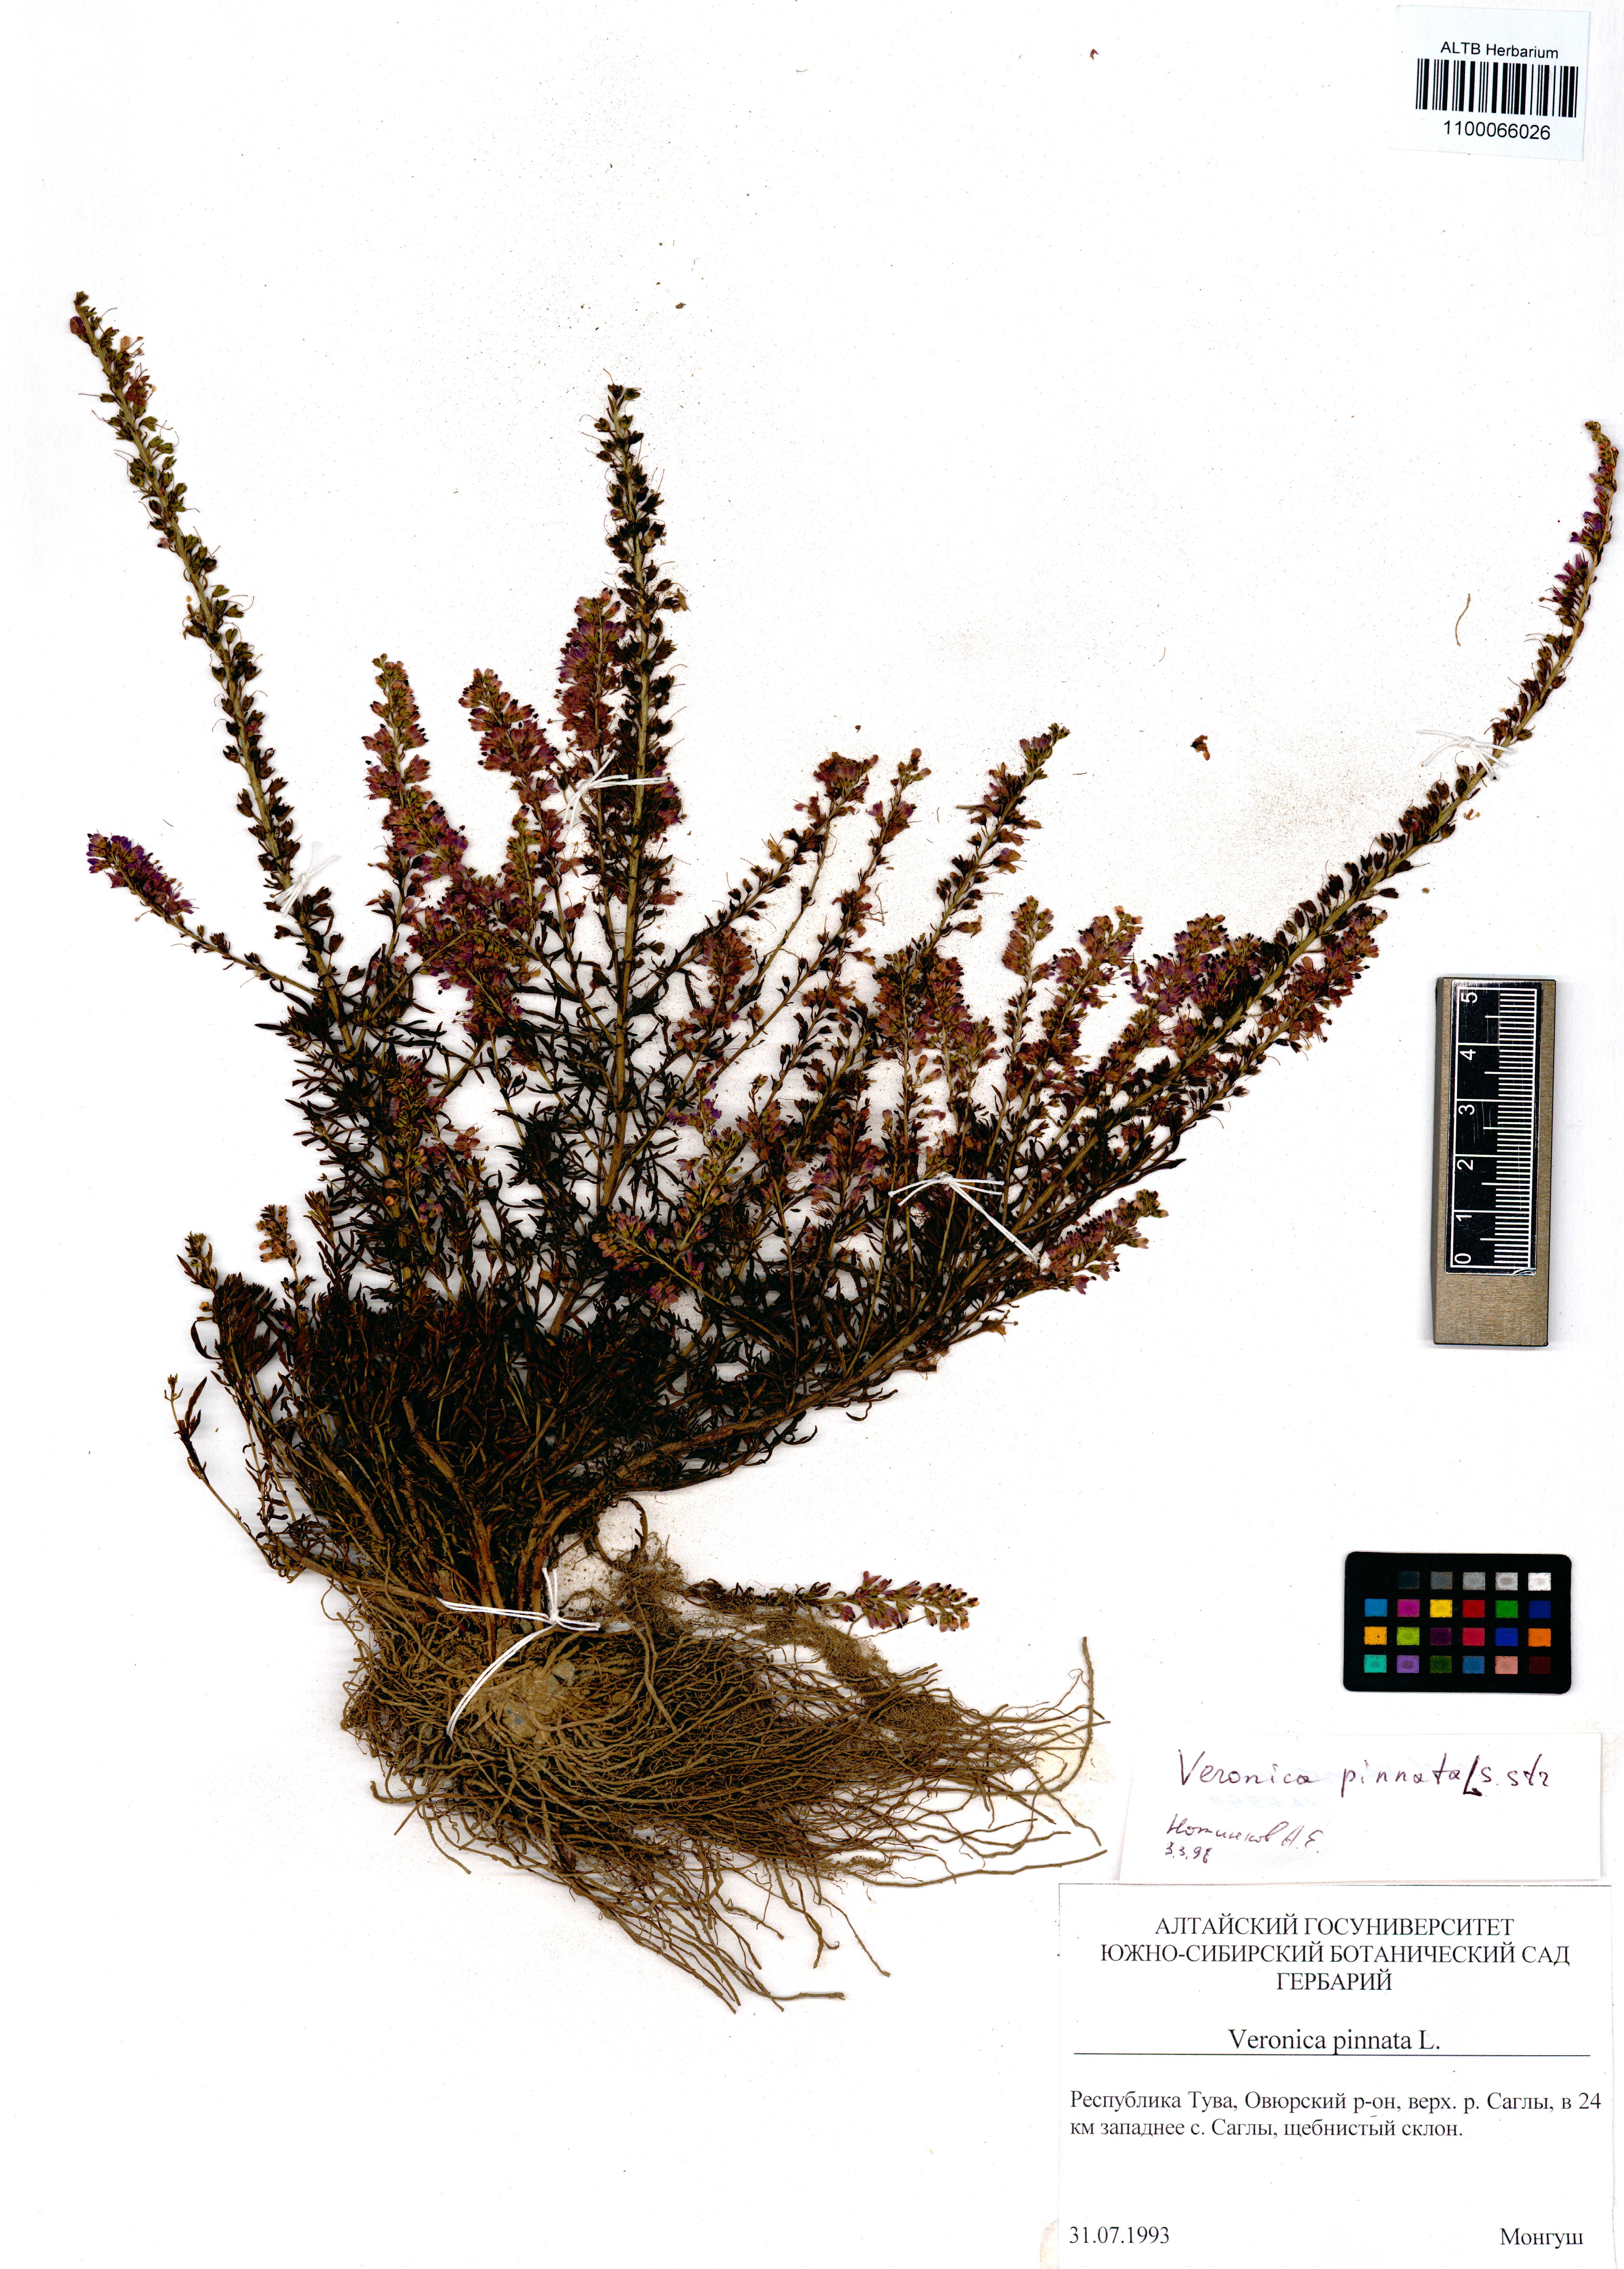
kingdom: Plantae
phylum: Tracheophyta
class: Magnoliopsida
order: Lamiales
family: Plantaginaceae
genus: Veronica
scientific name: Veronica pinnata
